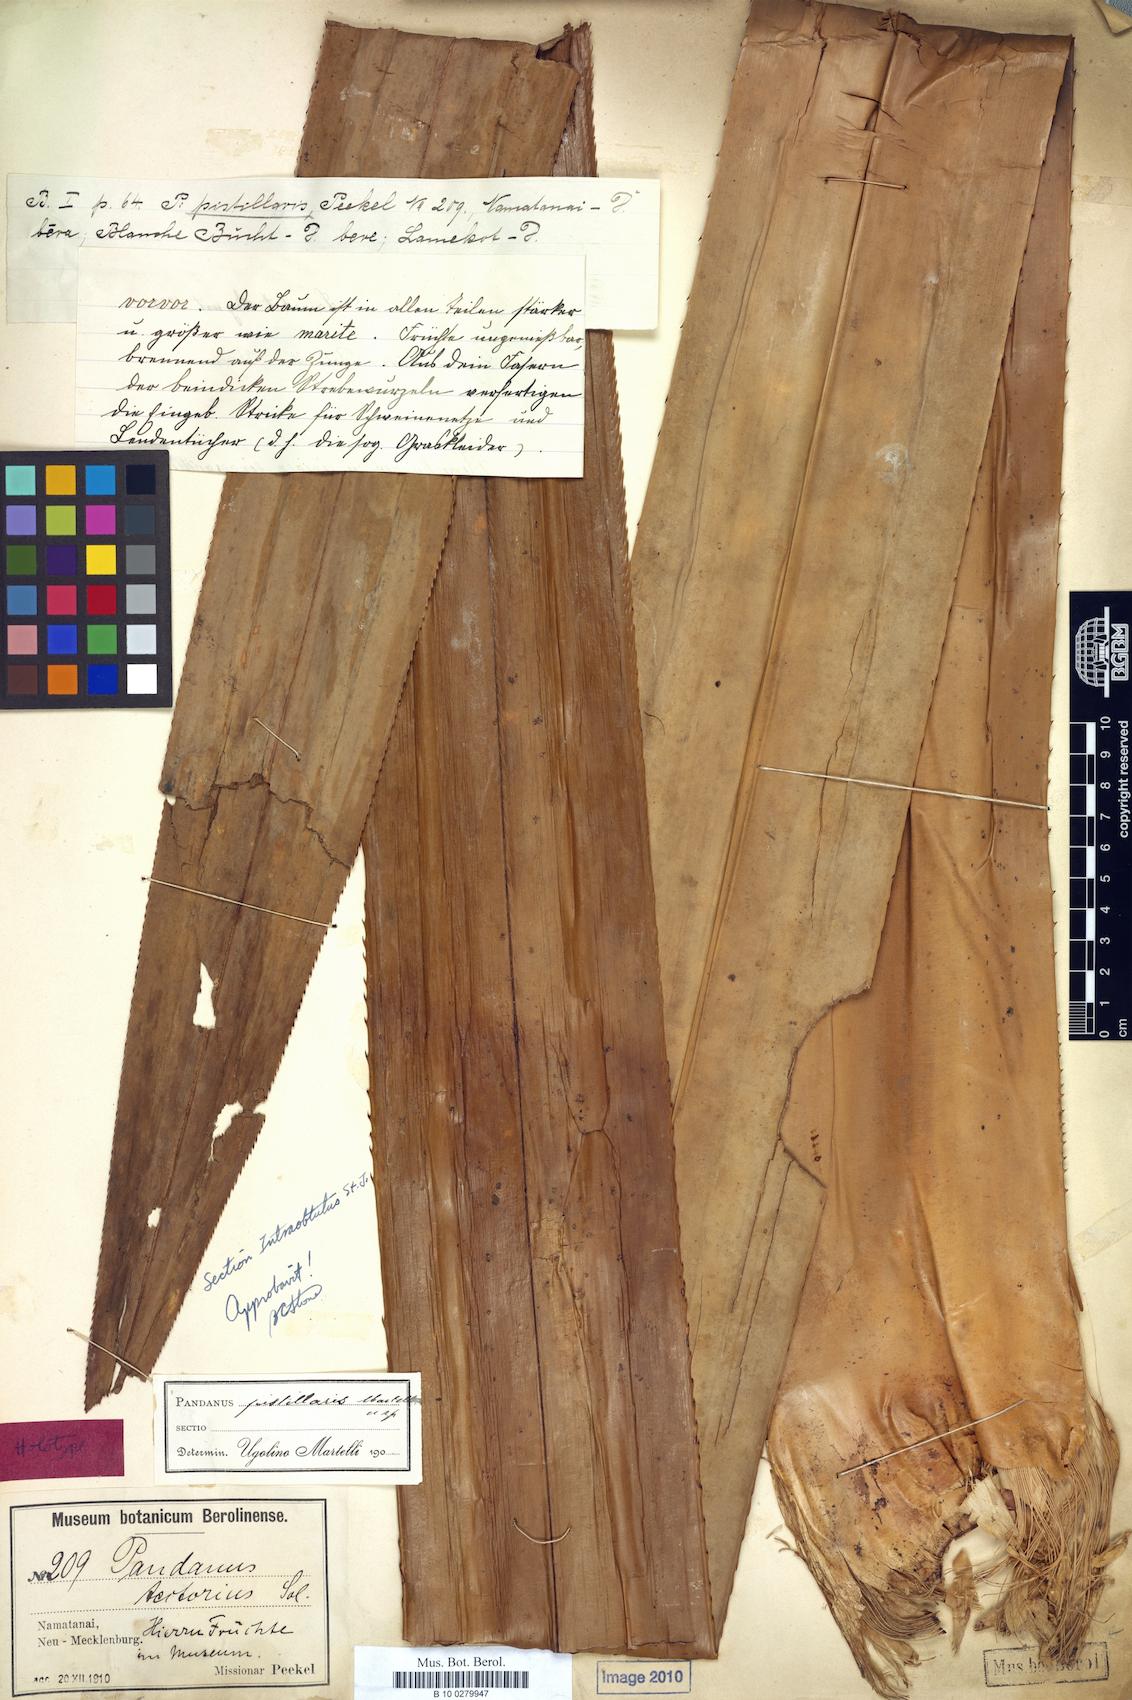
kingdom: Plantae
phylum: Tracheophyta
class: Liliopsida
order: Pandanales
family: Pandanaceae
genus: Pandanus
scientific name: Pandanus papuanus
